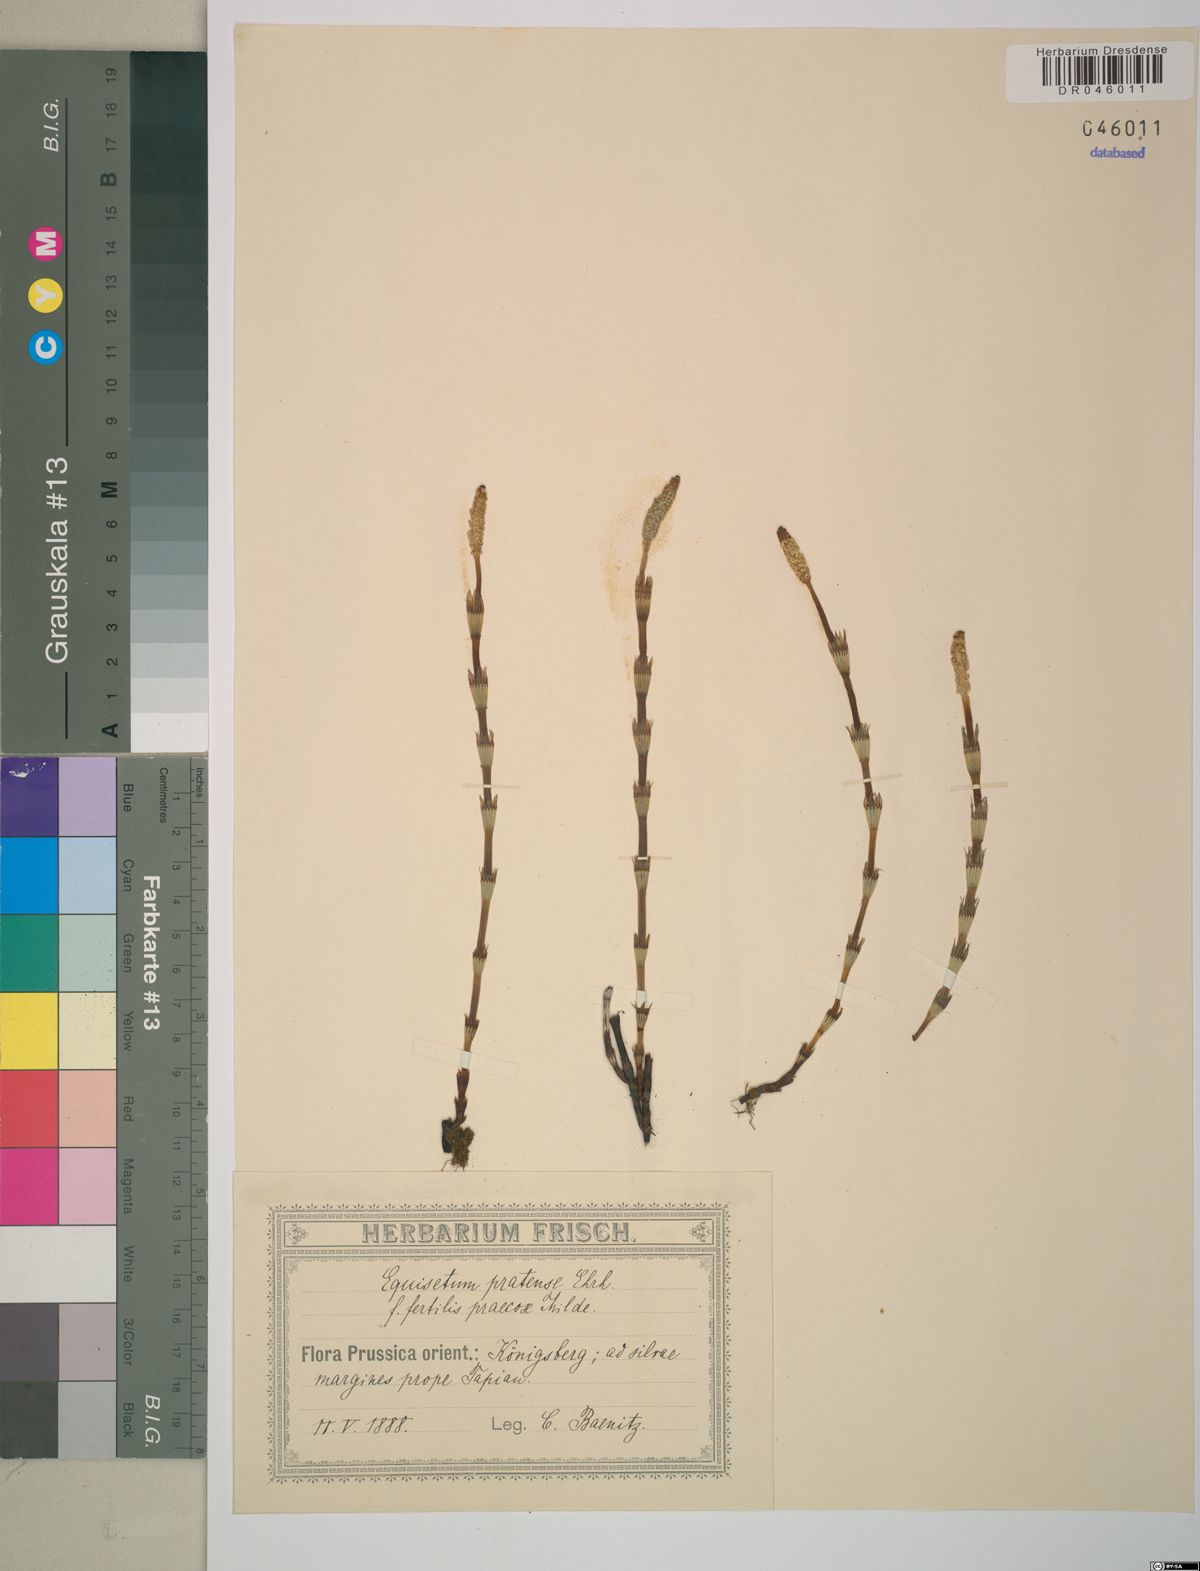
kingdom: Plantae
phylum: Tracheophyta
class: Polypodiopsida
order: Equisetales
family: Equisetaceae
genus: Equisetum
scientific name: Equisetum pratense
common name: Meadow horsetail
